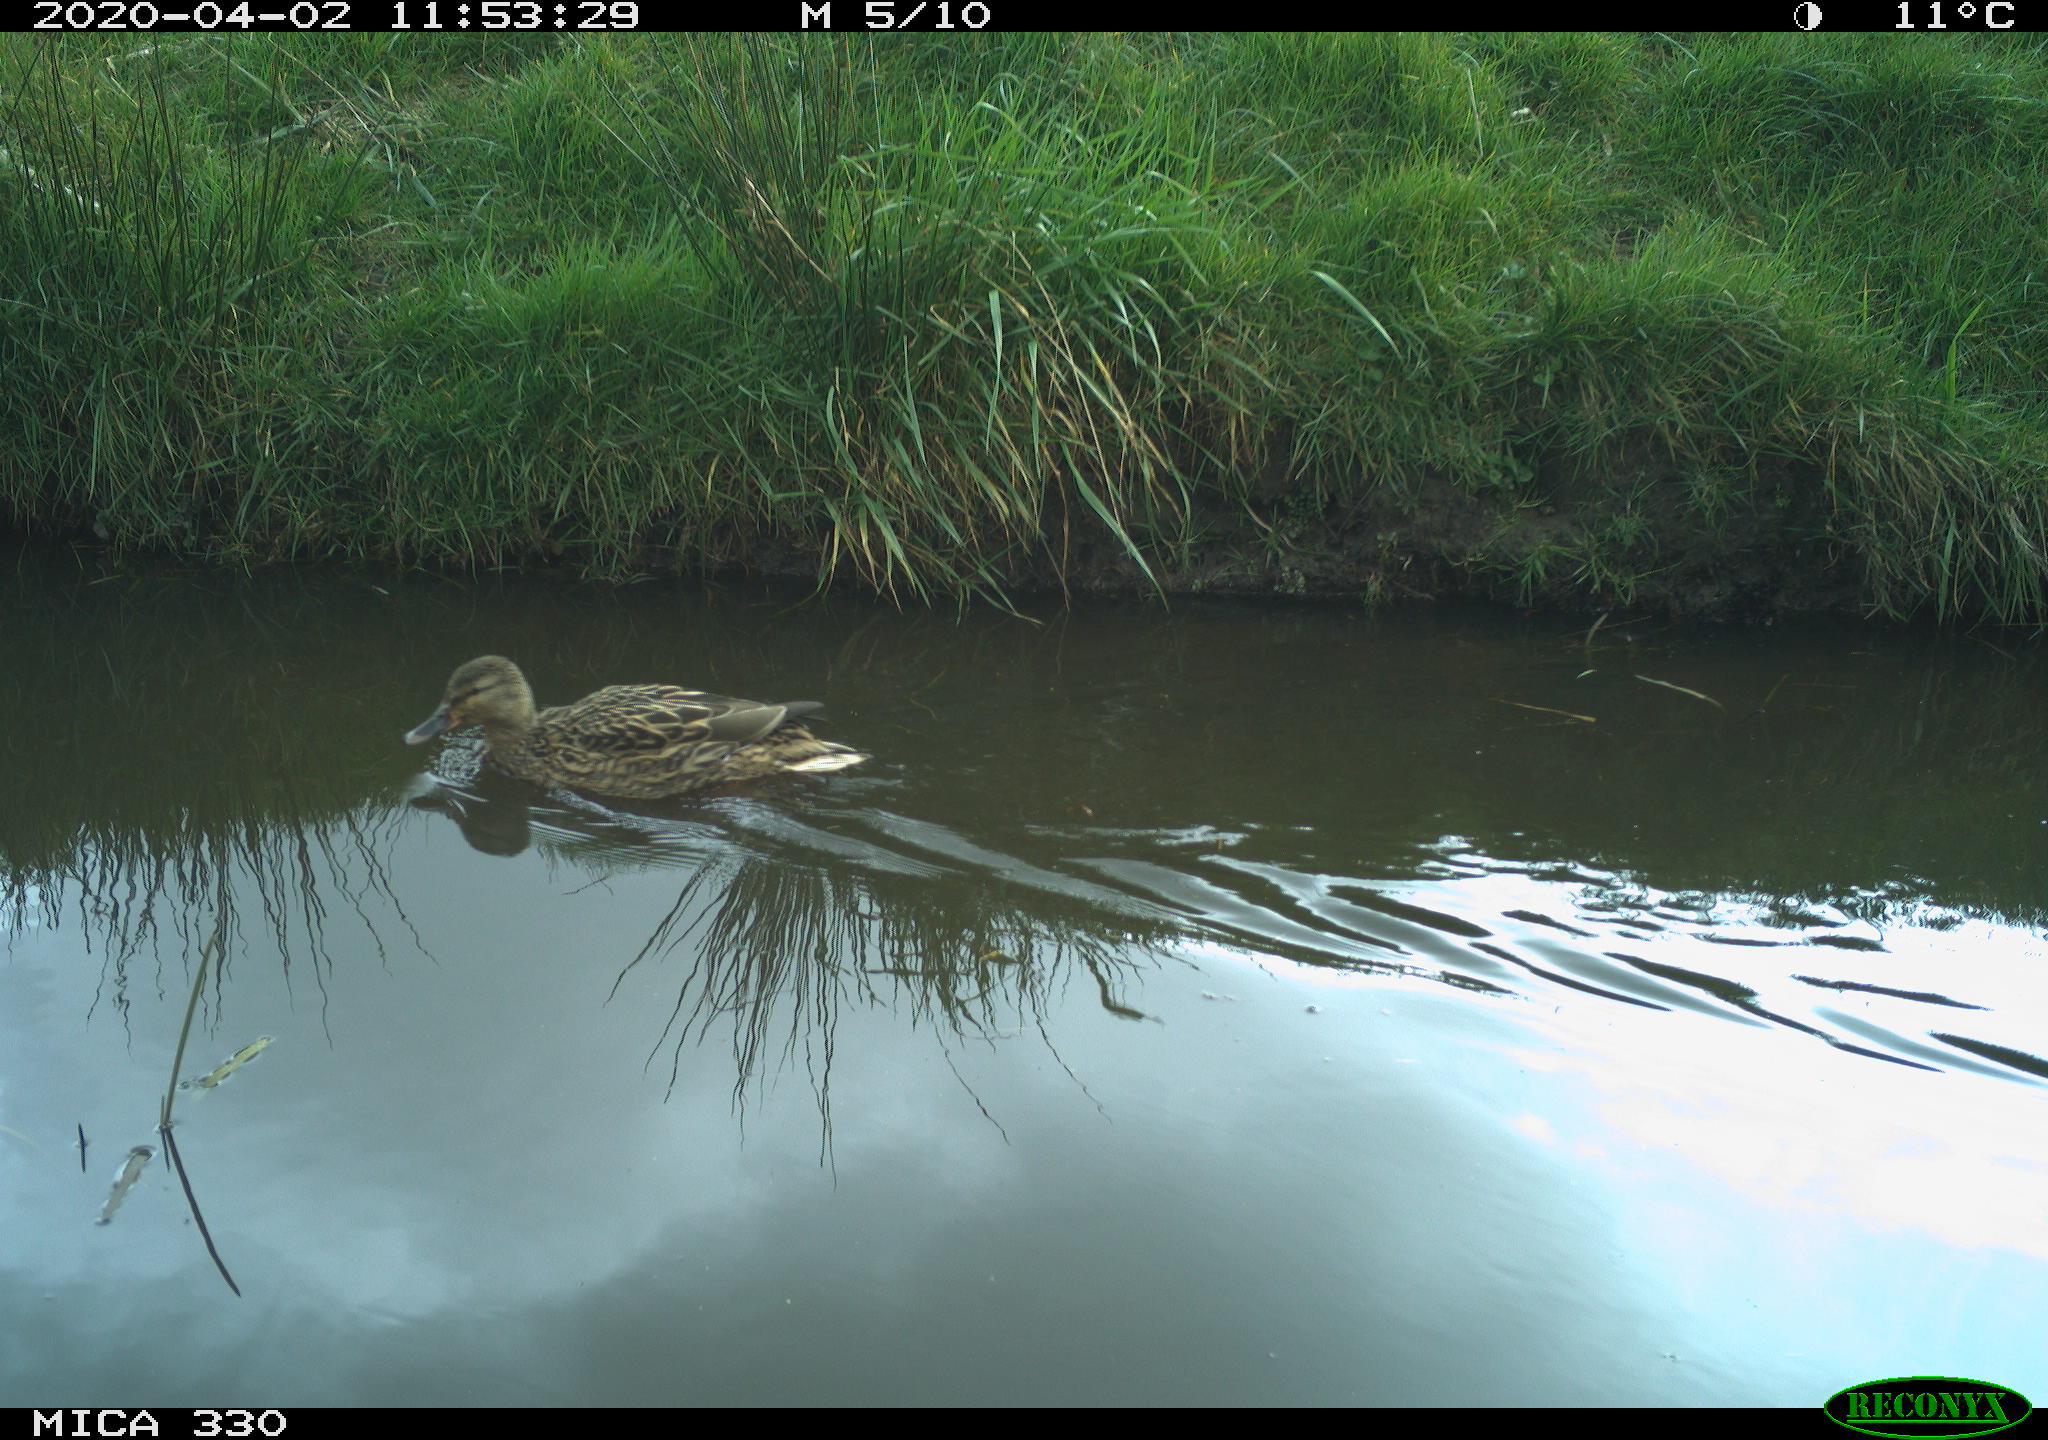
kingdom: Animalia
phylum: Chordata
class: Aves
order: Anseriformes
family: Anatidae
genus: Mareca
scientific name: Mareca strepera
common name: Gadwall
